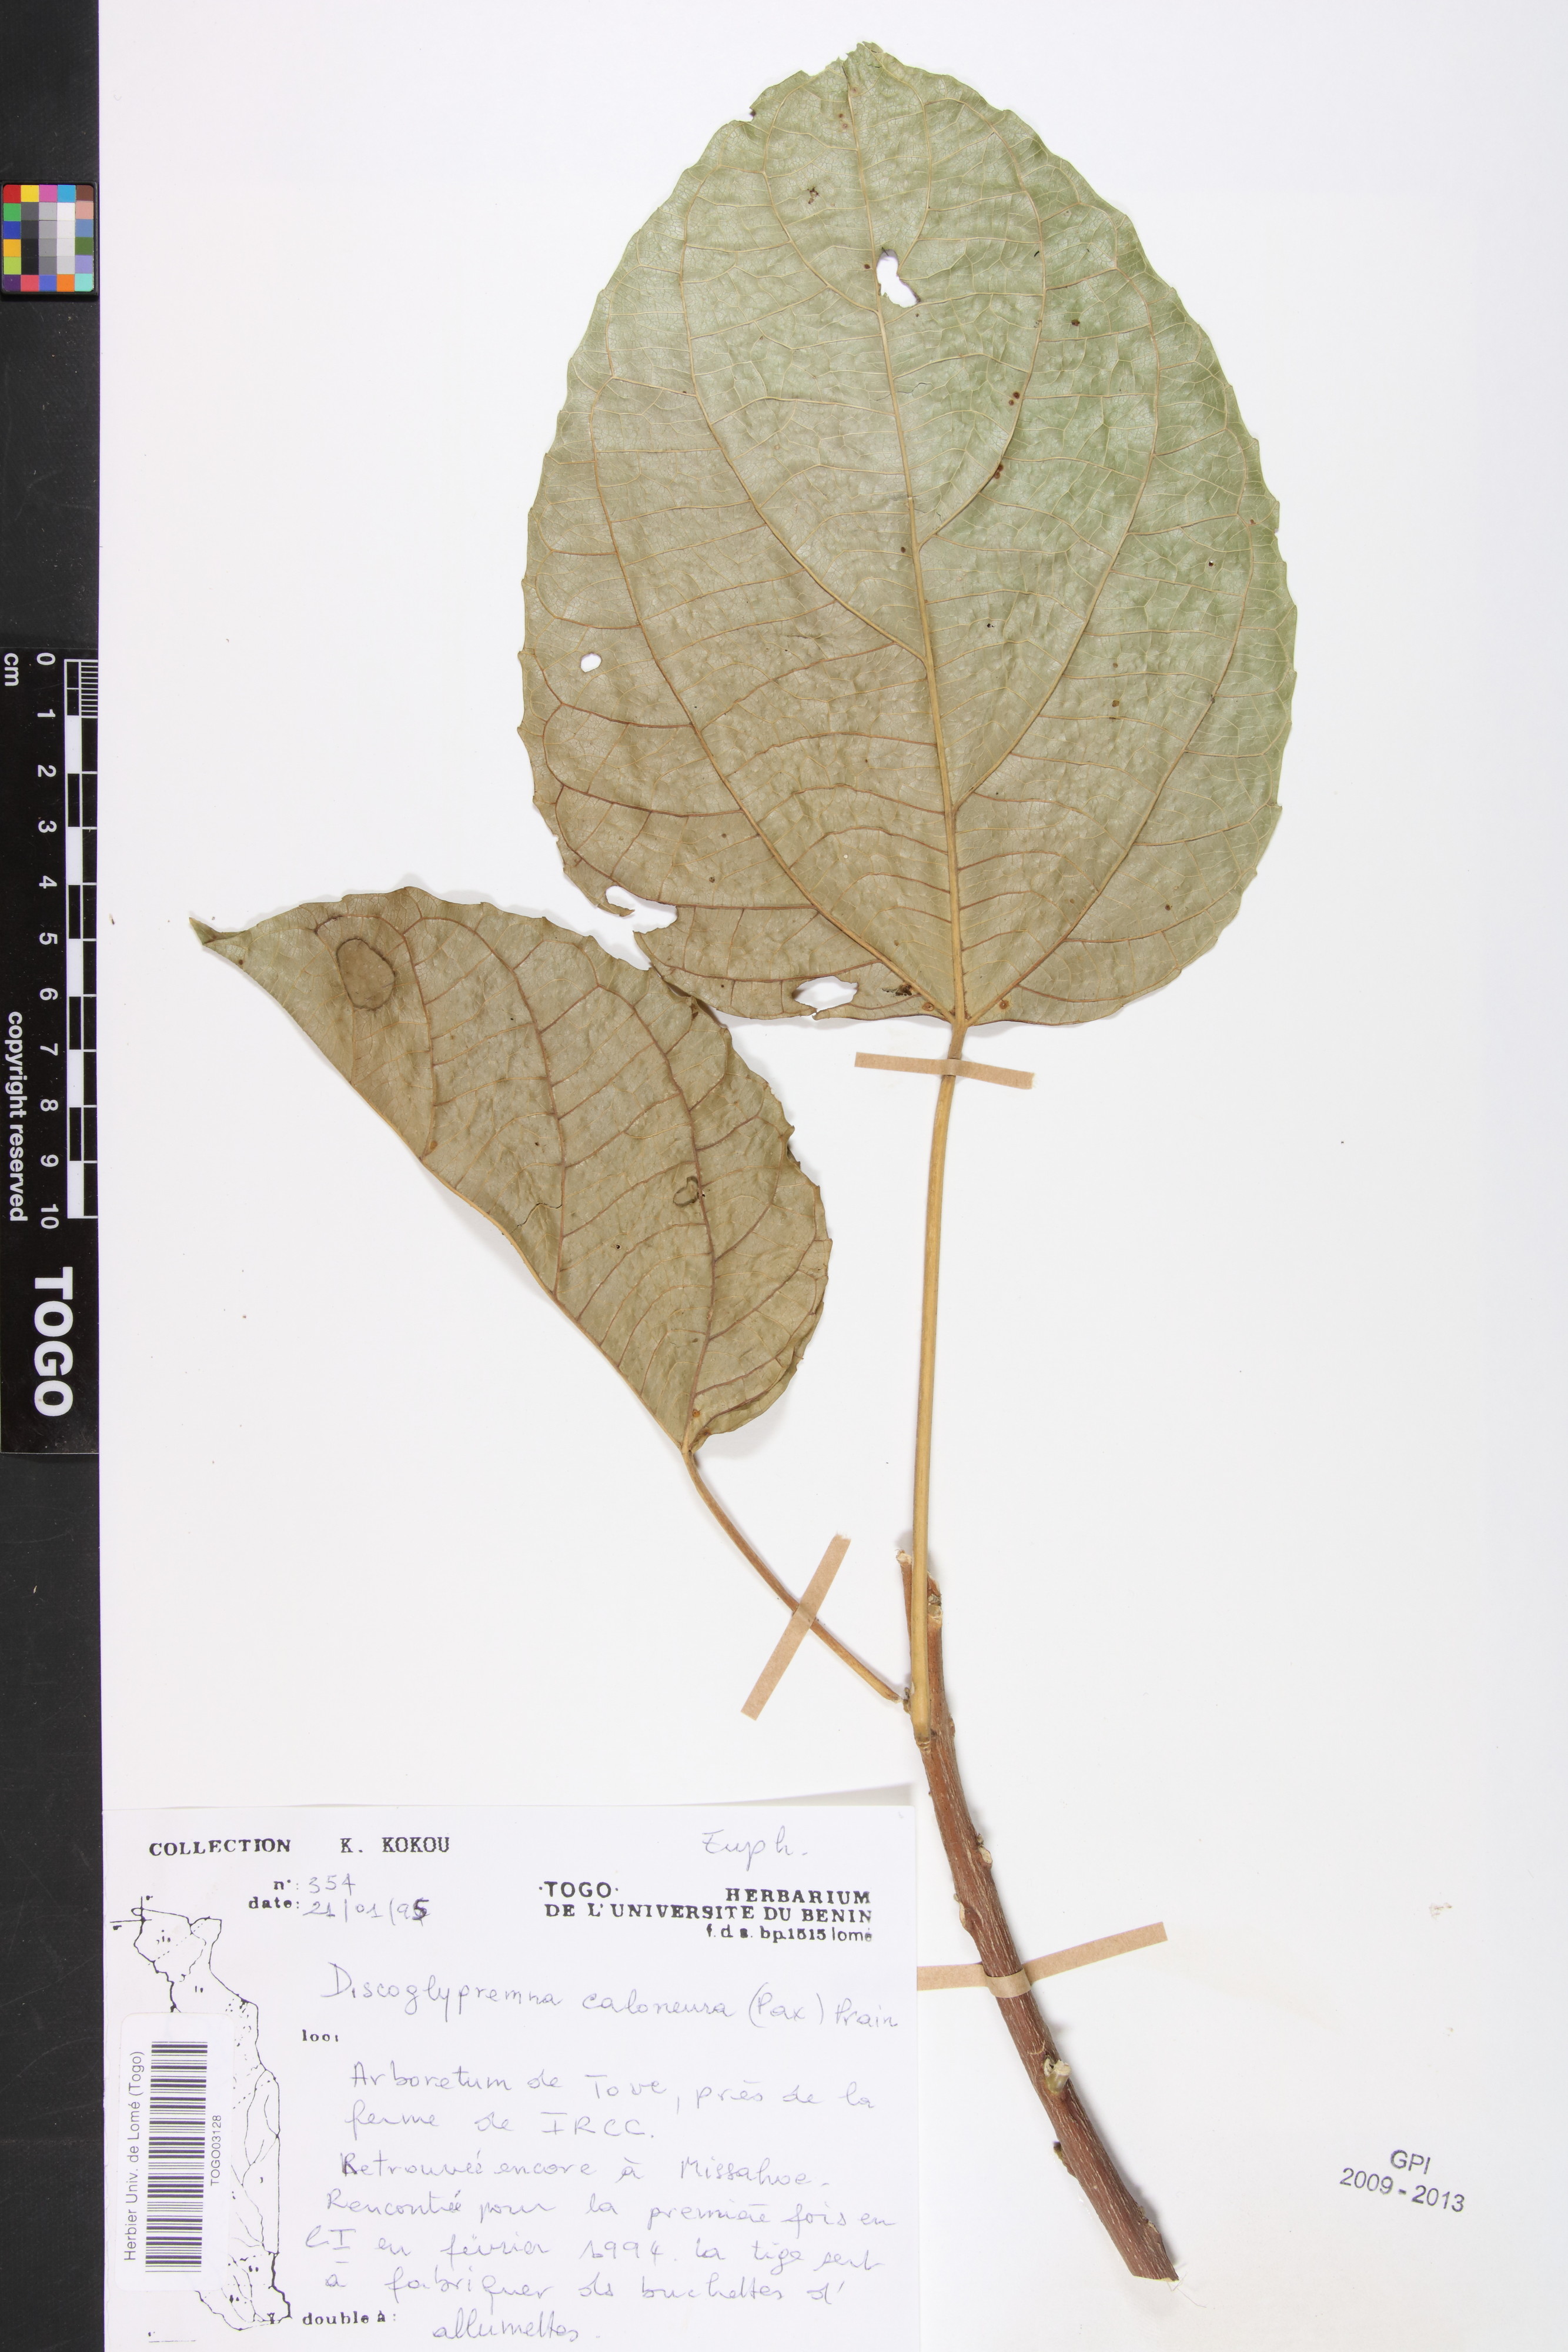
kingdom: Plantae
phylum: Tracheophyta
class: Magnoliopsida
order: Malpighiales
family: Euphorbiaceae
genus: Discoglypremna
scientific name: Discoglypremna caloneura
